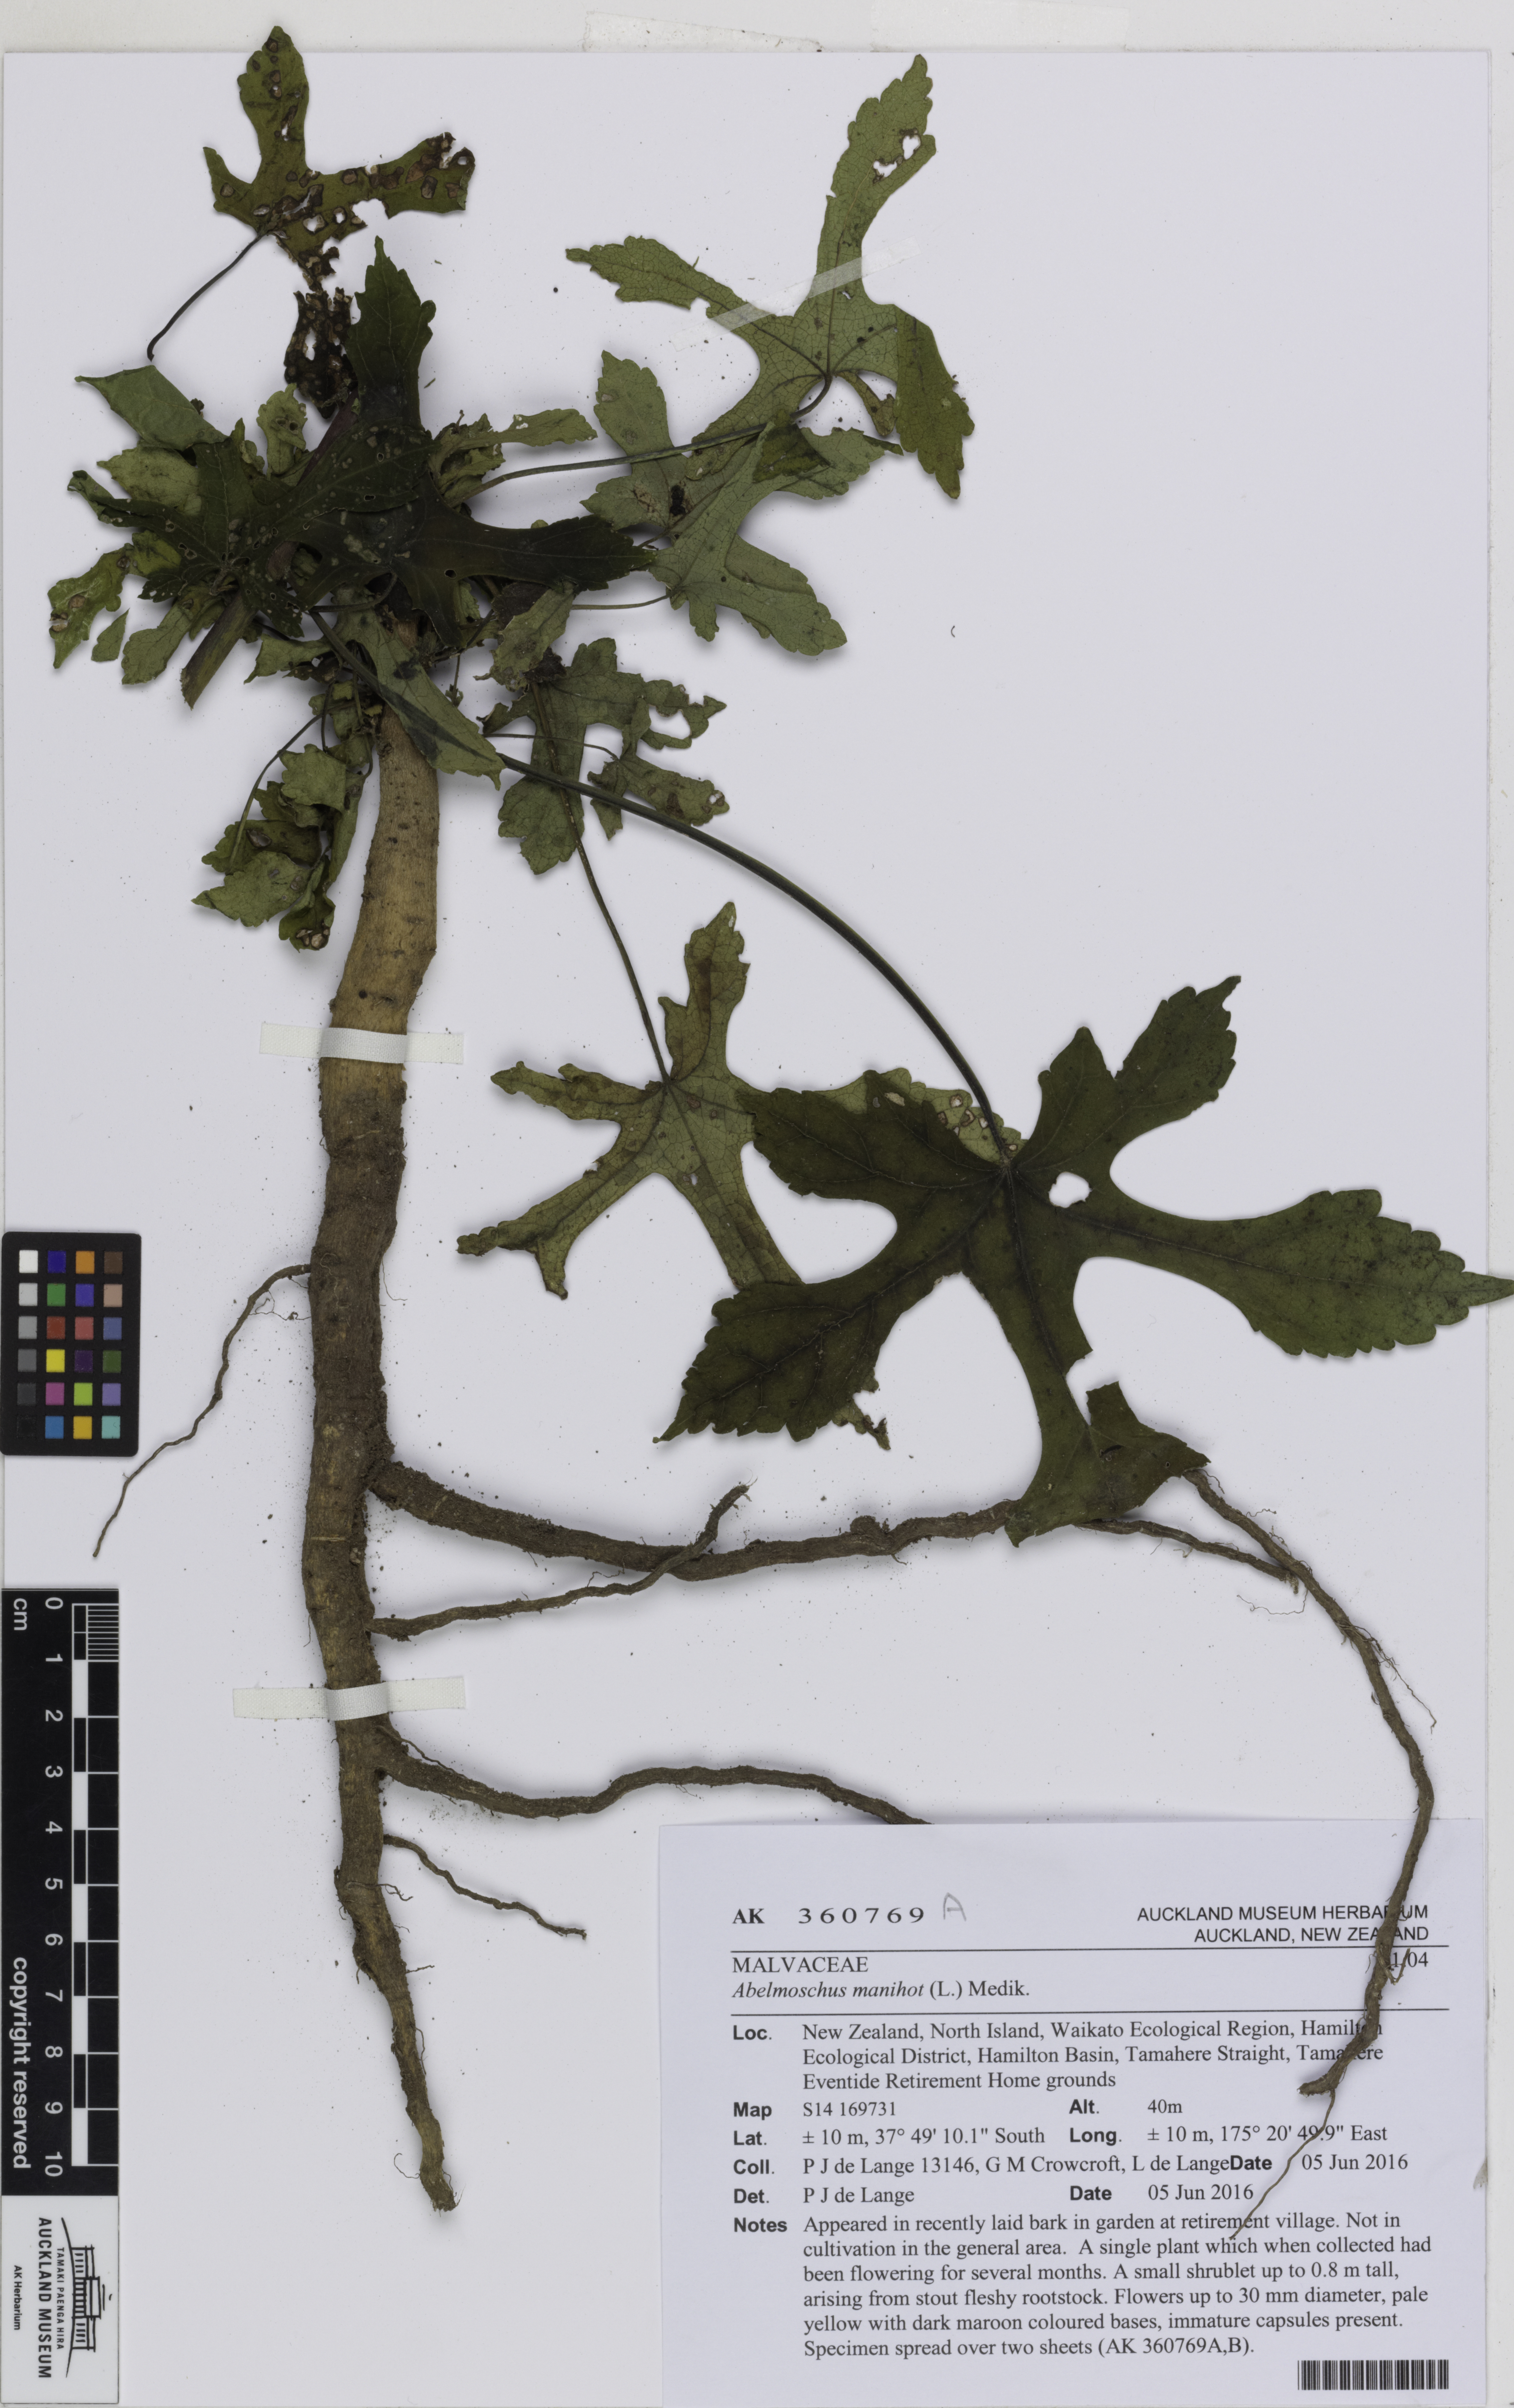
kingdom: Plantae
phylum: Tracheophyta
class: Magnoliopsida
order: Malvales
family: Malvaceae
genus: Abelmoschus
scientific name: Abelmoschus manihot
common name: Sunset muskmallow
